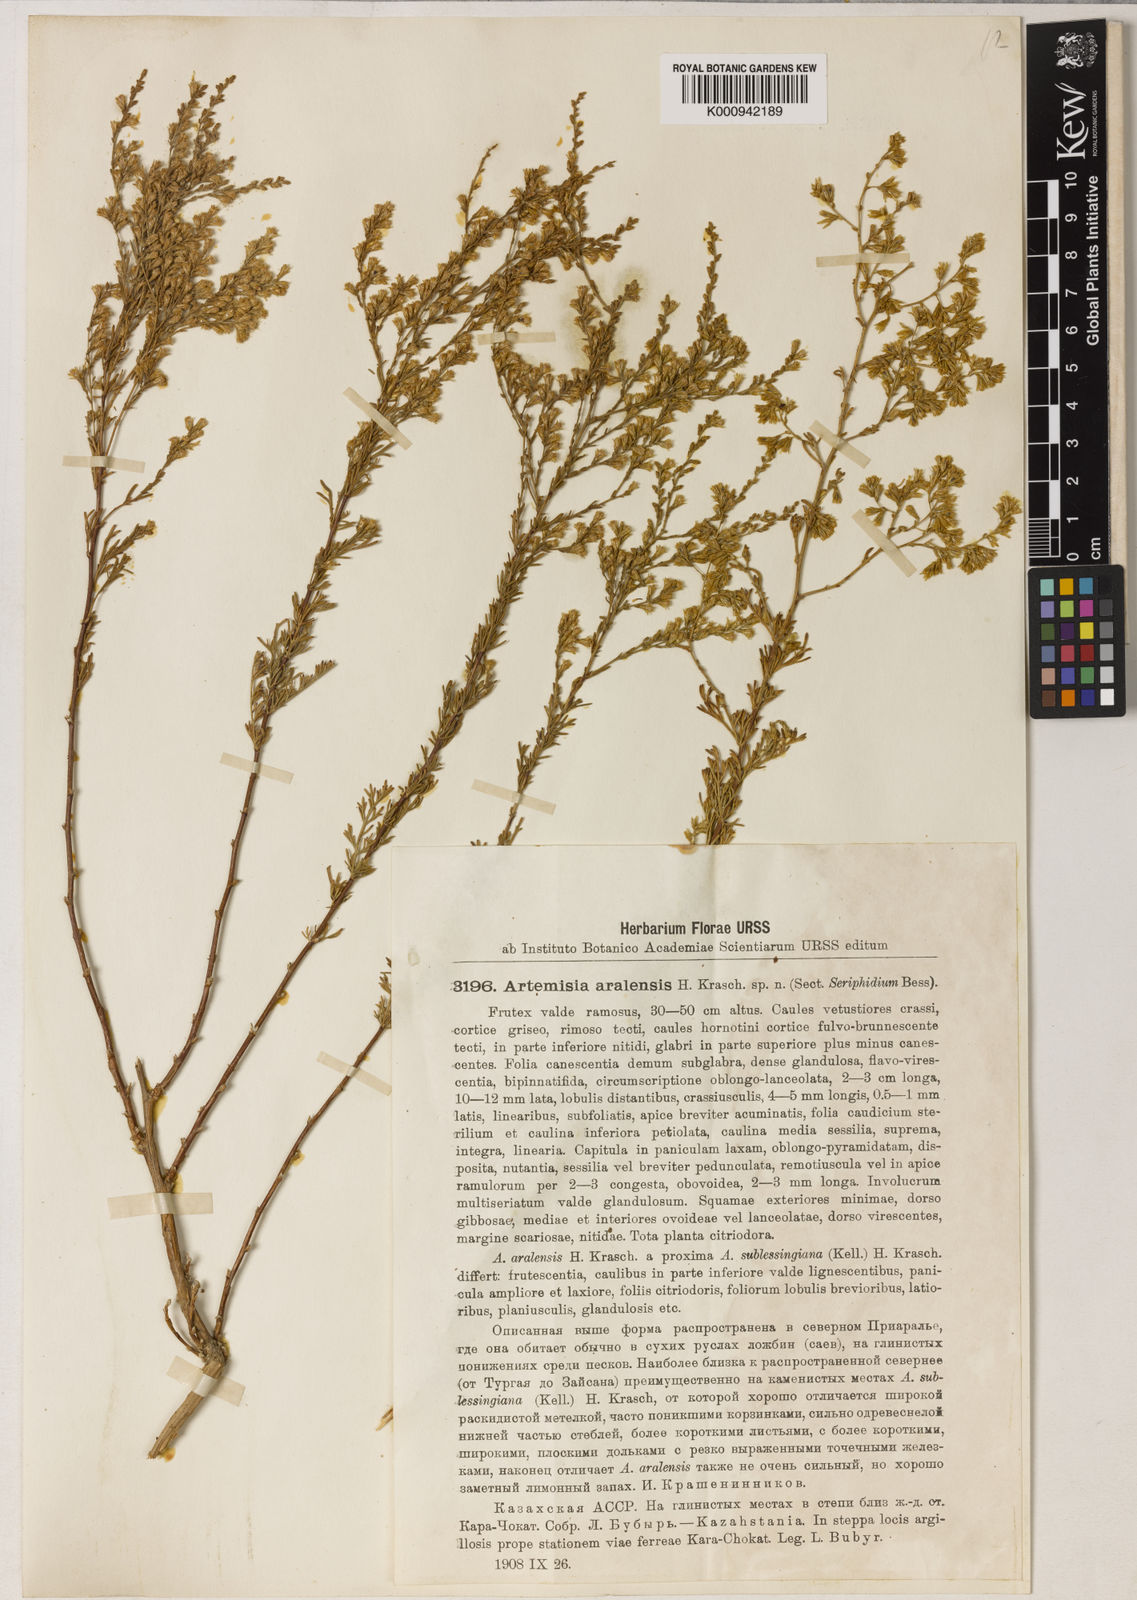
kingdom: Plantae
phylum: Tracheophyta
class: Magnoliopsida
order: Asterales
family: Asteraceae
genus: Artemisia
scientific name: Artemisia aralensis
